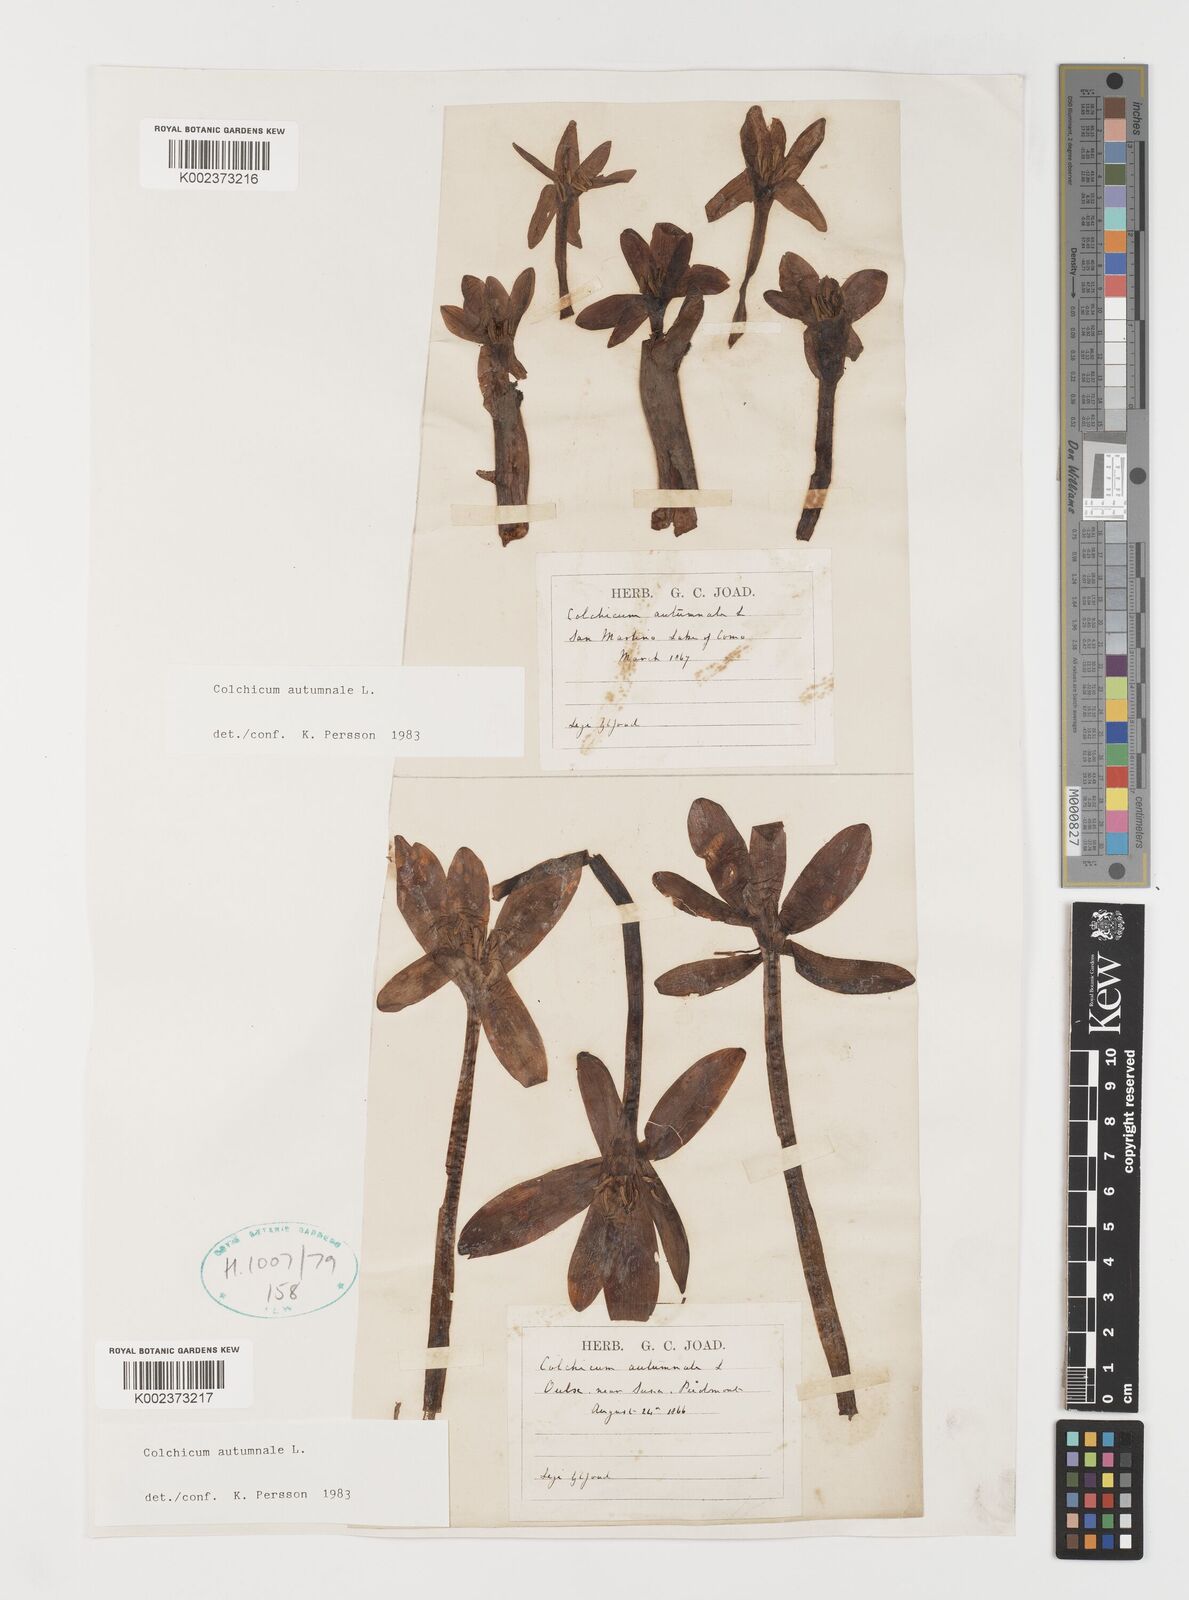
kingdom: Plantae
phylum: Tracheophyta
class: Liliopsida
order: Liliales
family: Colchicaceae
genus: Colchicum
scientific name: Colchicum autumnale
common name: Autumn crocus
